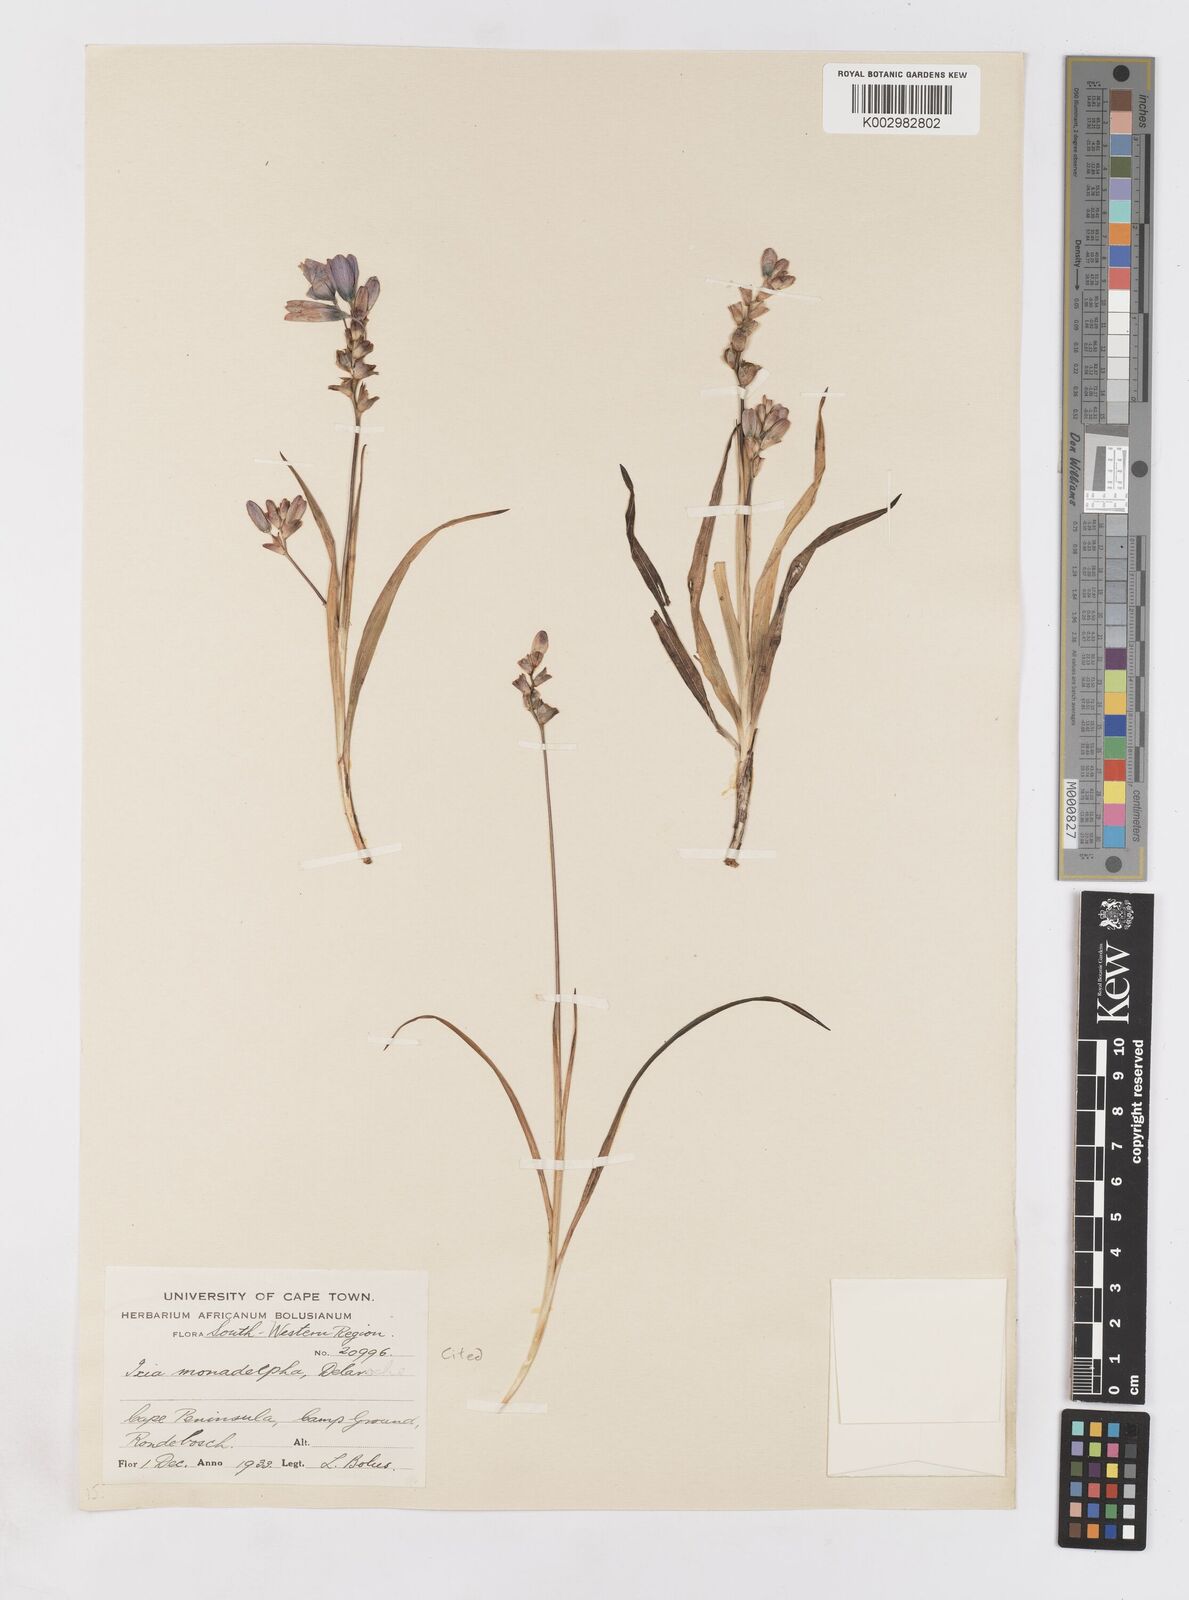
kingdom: Plantae
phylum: Tracheophyta
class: Liliopsida
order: Asparagales
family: Iridaceae
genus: Ixia
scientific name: Ixia monadelpha
